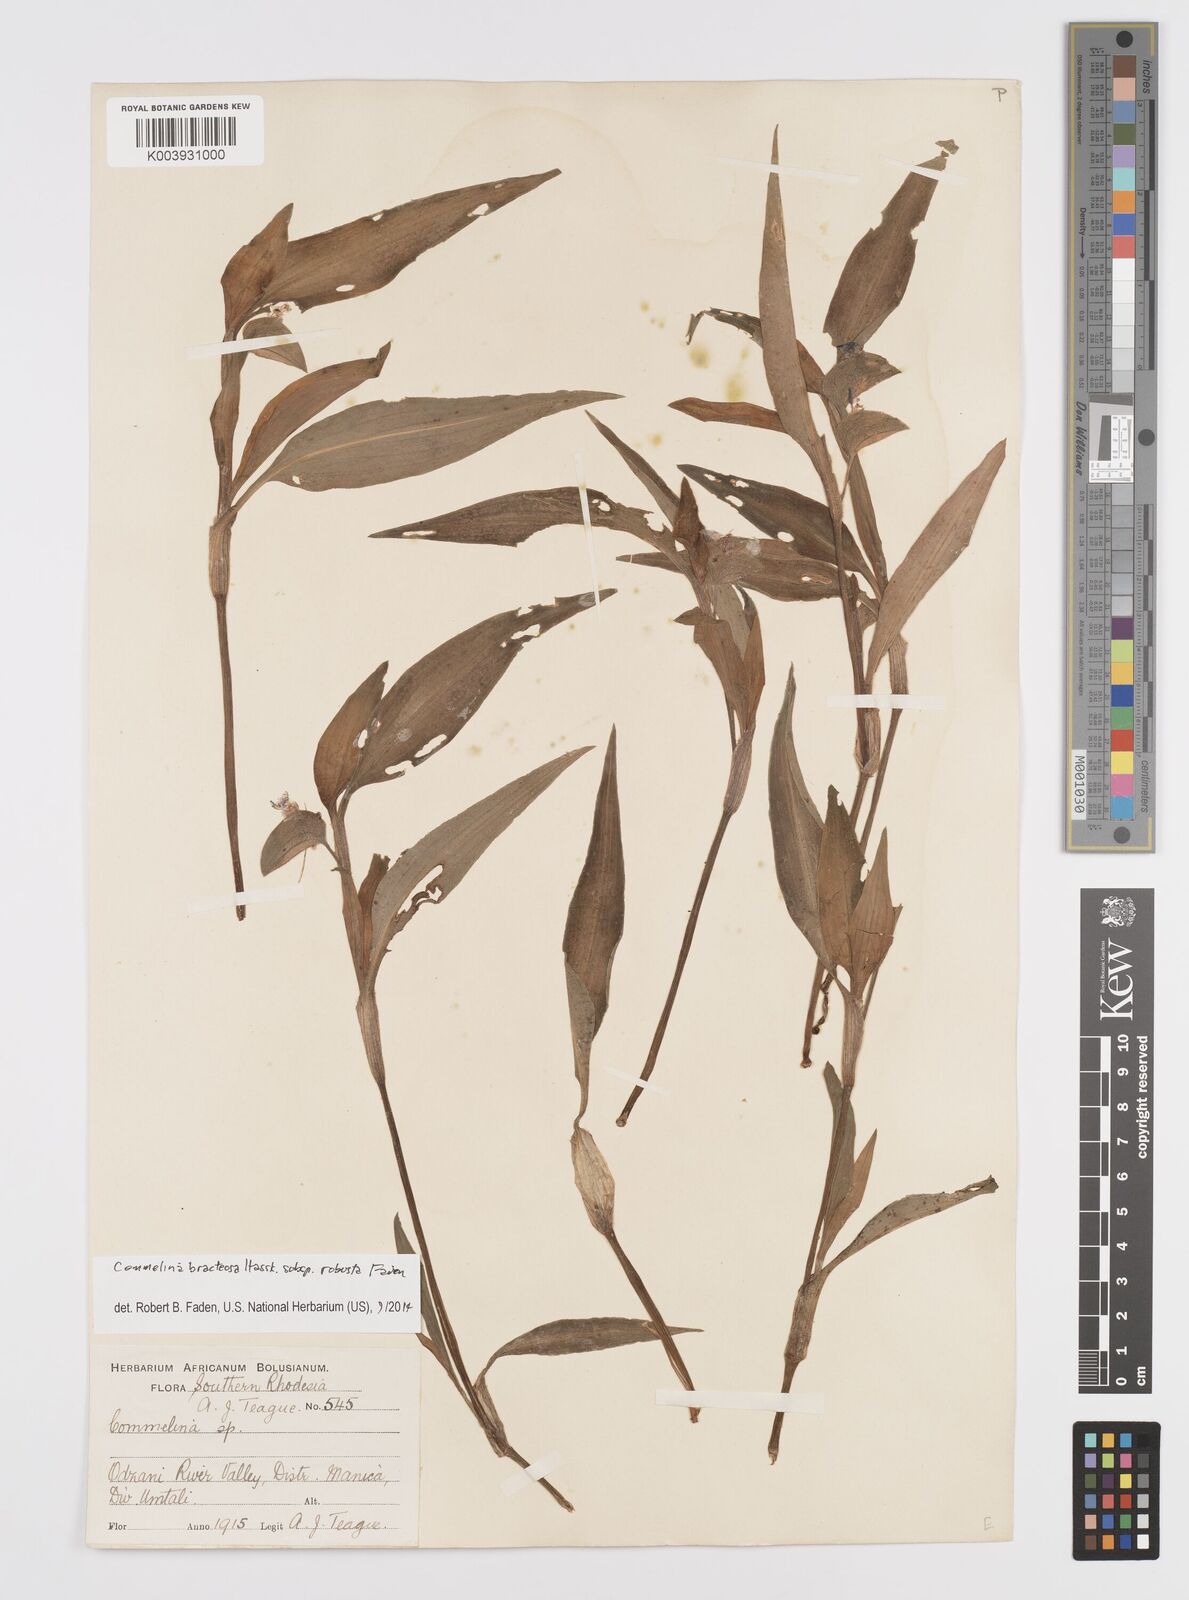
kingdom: Plantae
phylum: Tracheophyta
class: Liliopsida
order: Commelinales
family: Commelinaceae
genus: Commelina
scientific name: Commelina bracteosa
